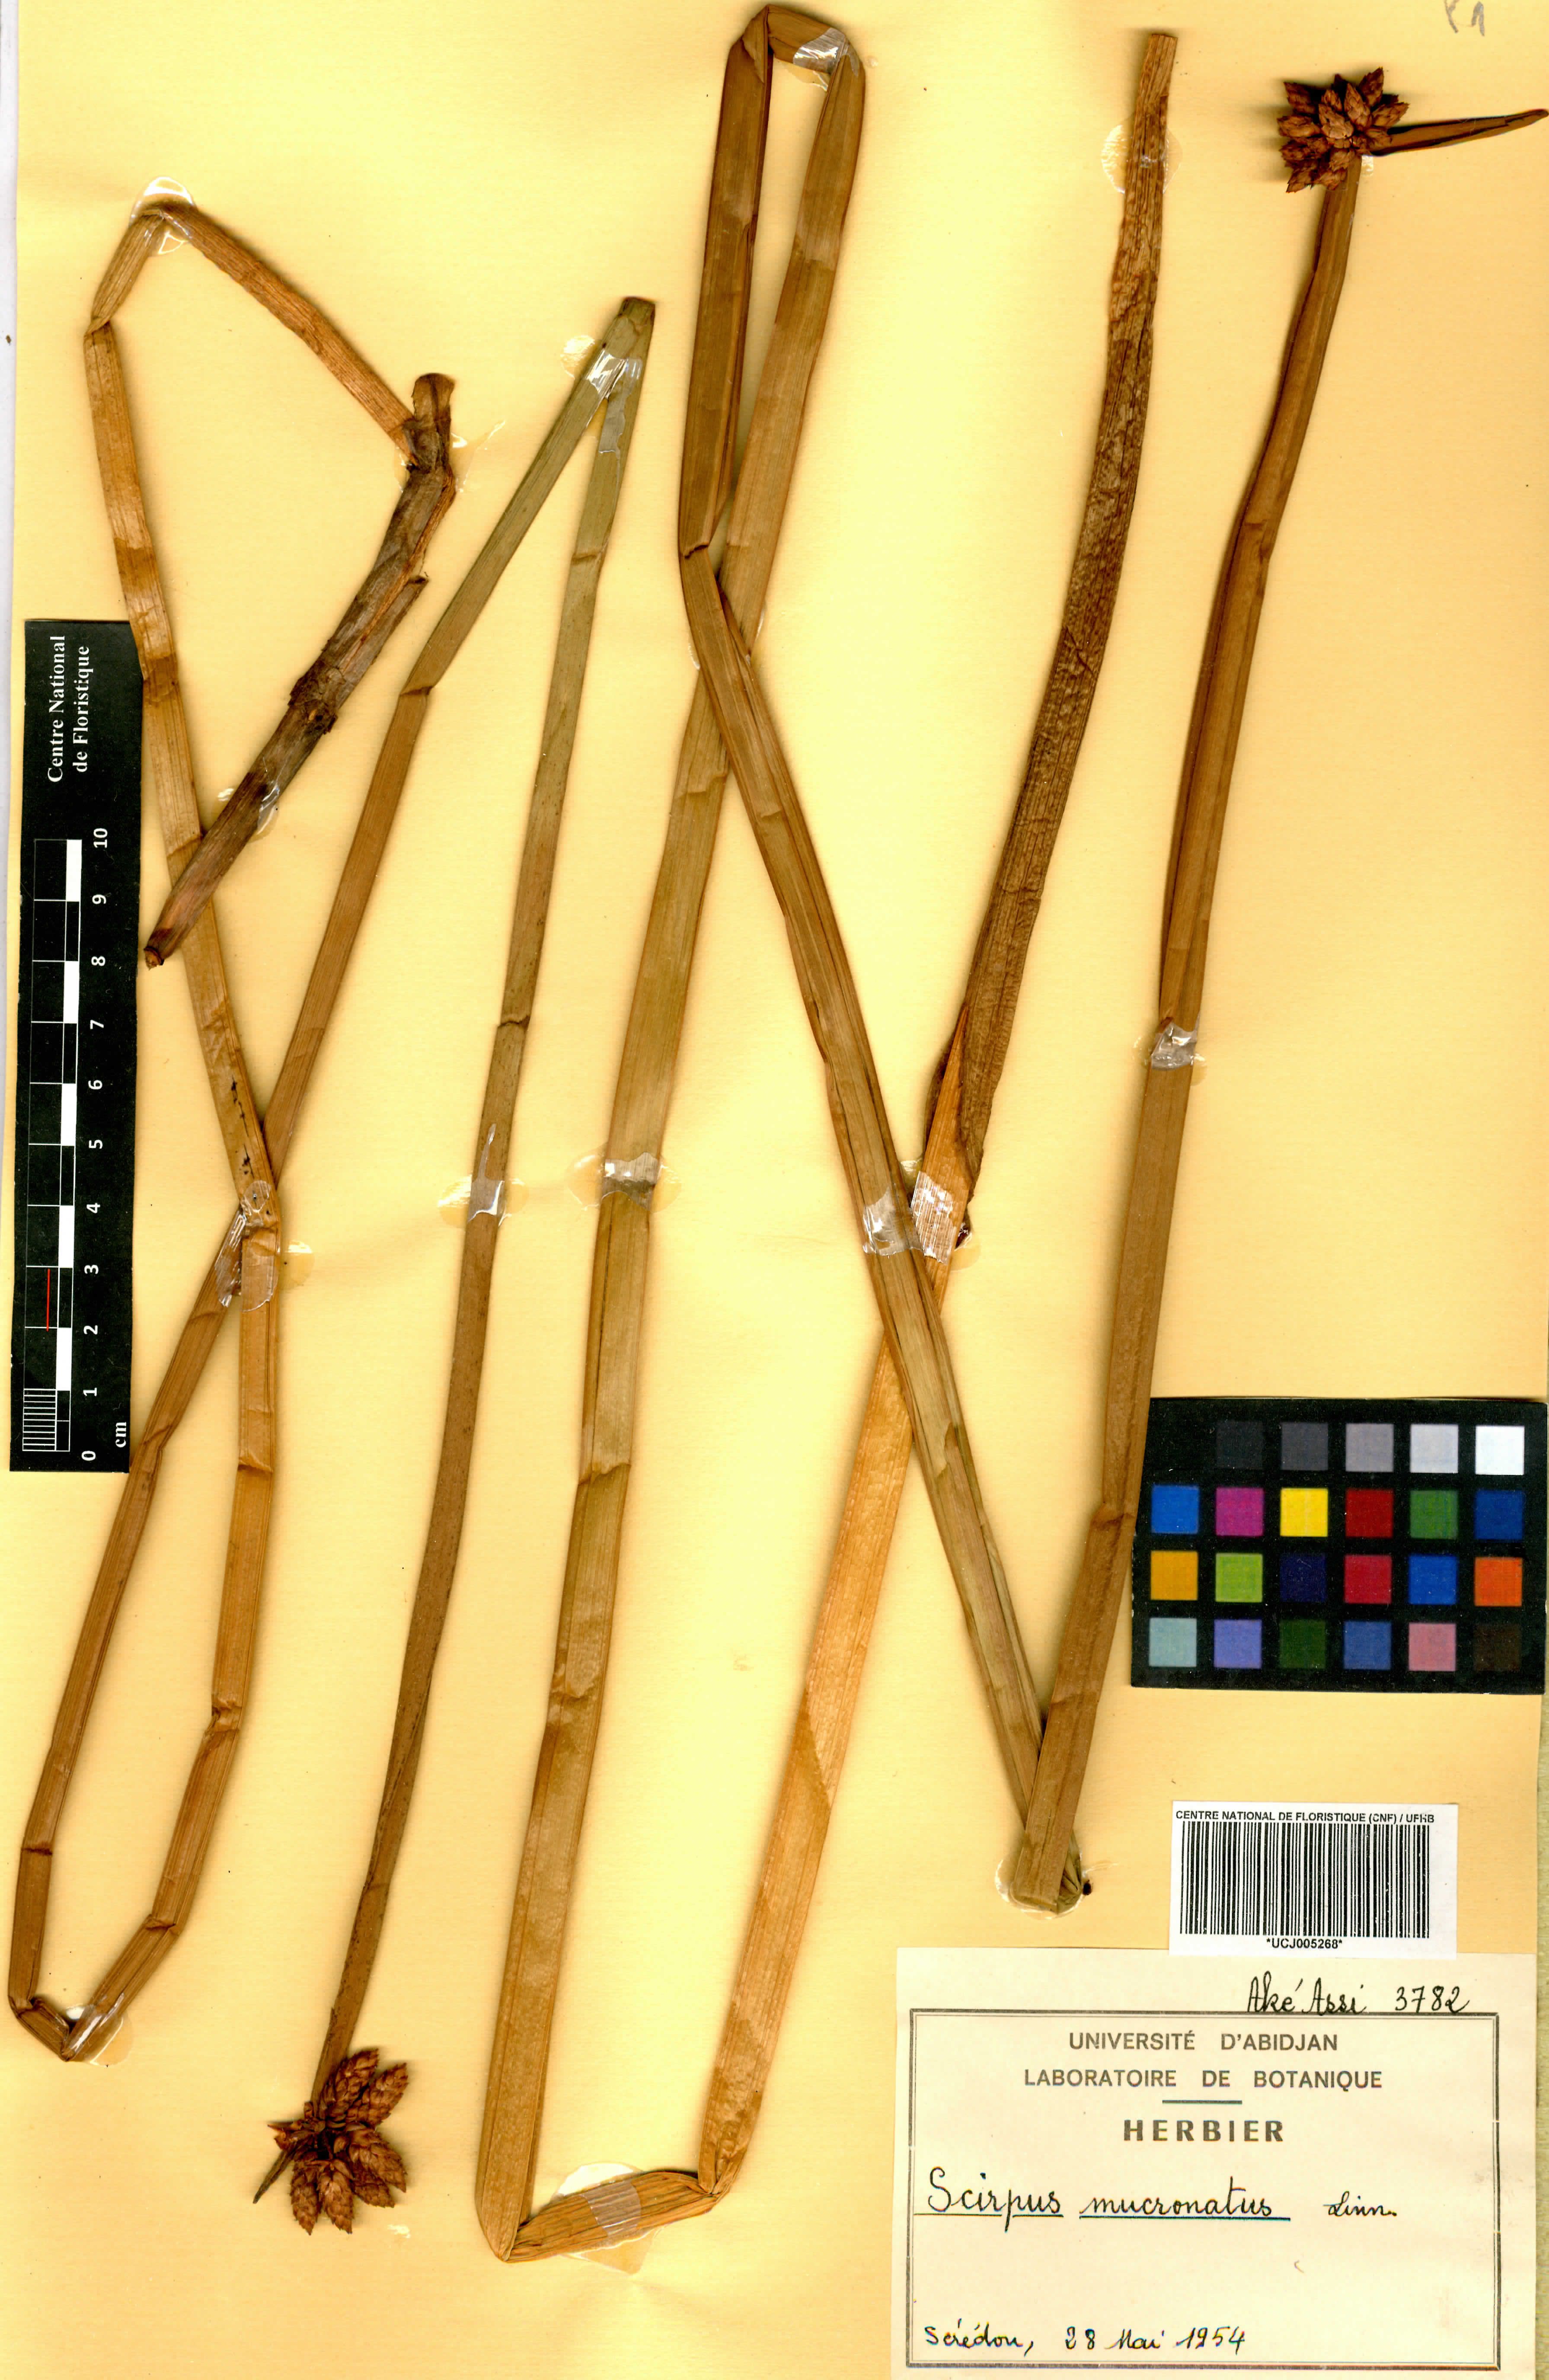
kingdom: Plantae
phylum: Tracheophyta
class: Liliopsida
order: Poales
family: Cyperaceae
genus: Schoenoplectiella
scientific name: Schoenoplectiella mucronata
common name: Bog bulrush
